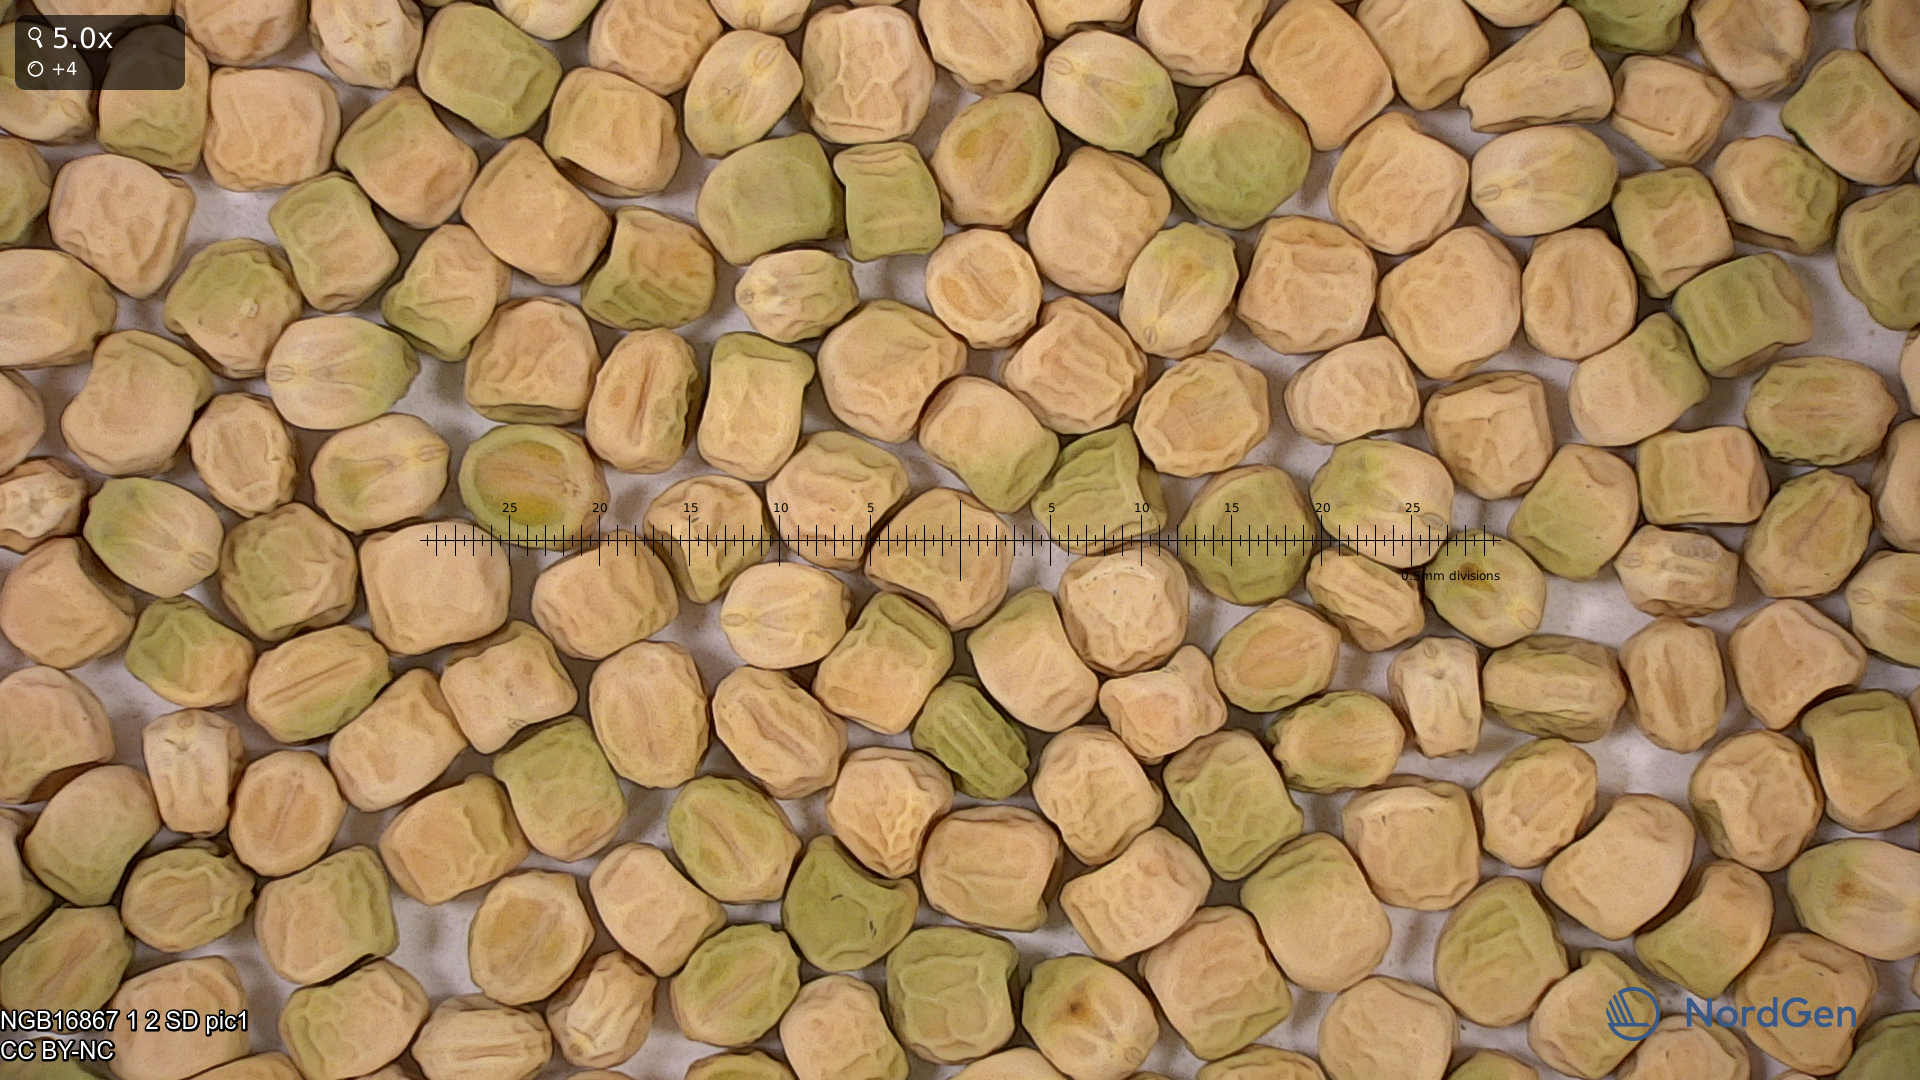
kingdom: Plantae
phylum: Tracheophyta
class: Magnoliopsida
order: Fabales
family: Fabaceae
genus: Lathyrus
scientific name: Lathyrus oleraceus
